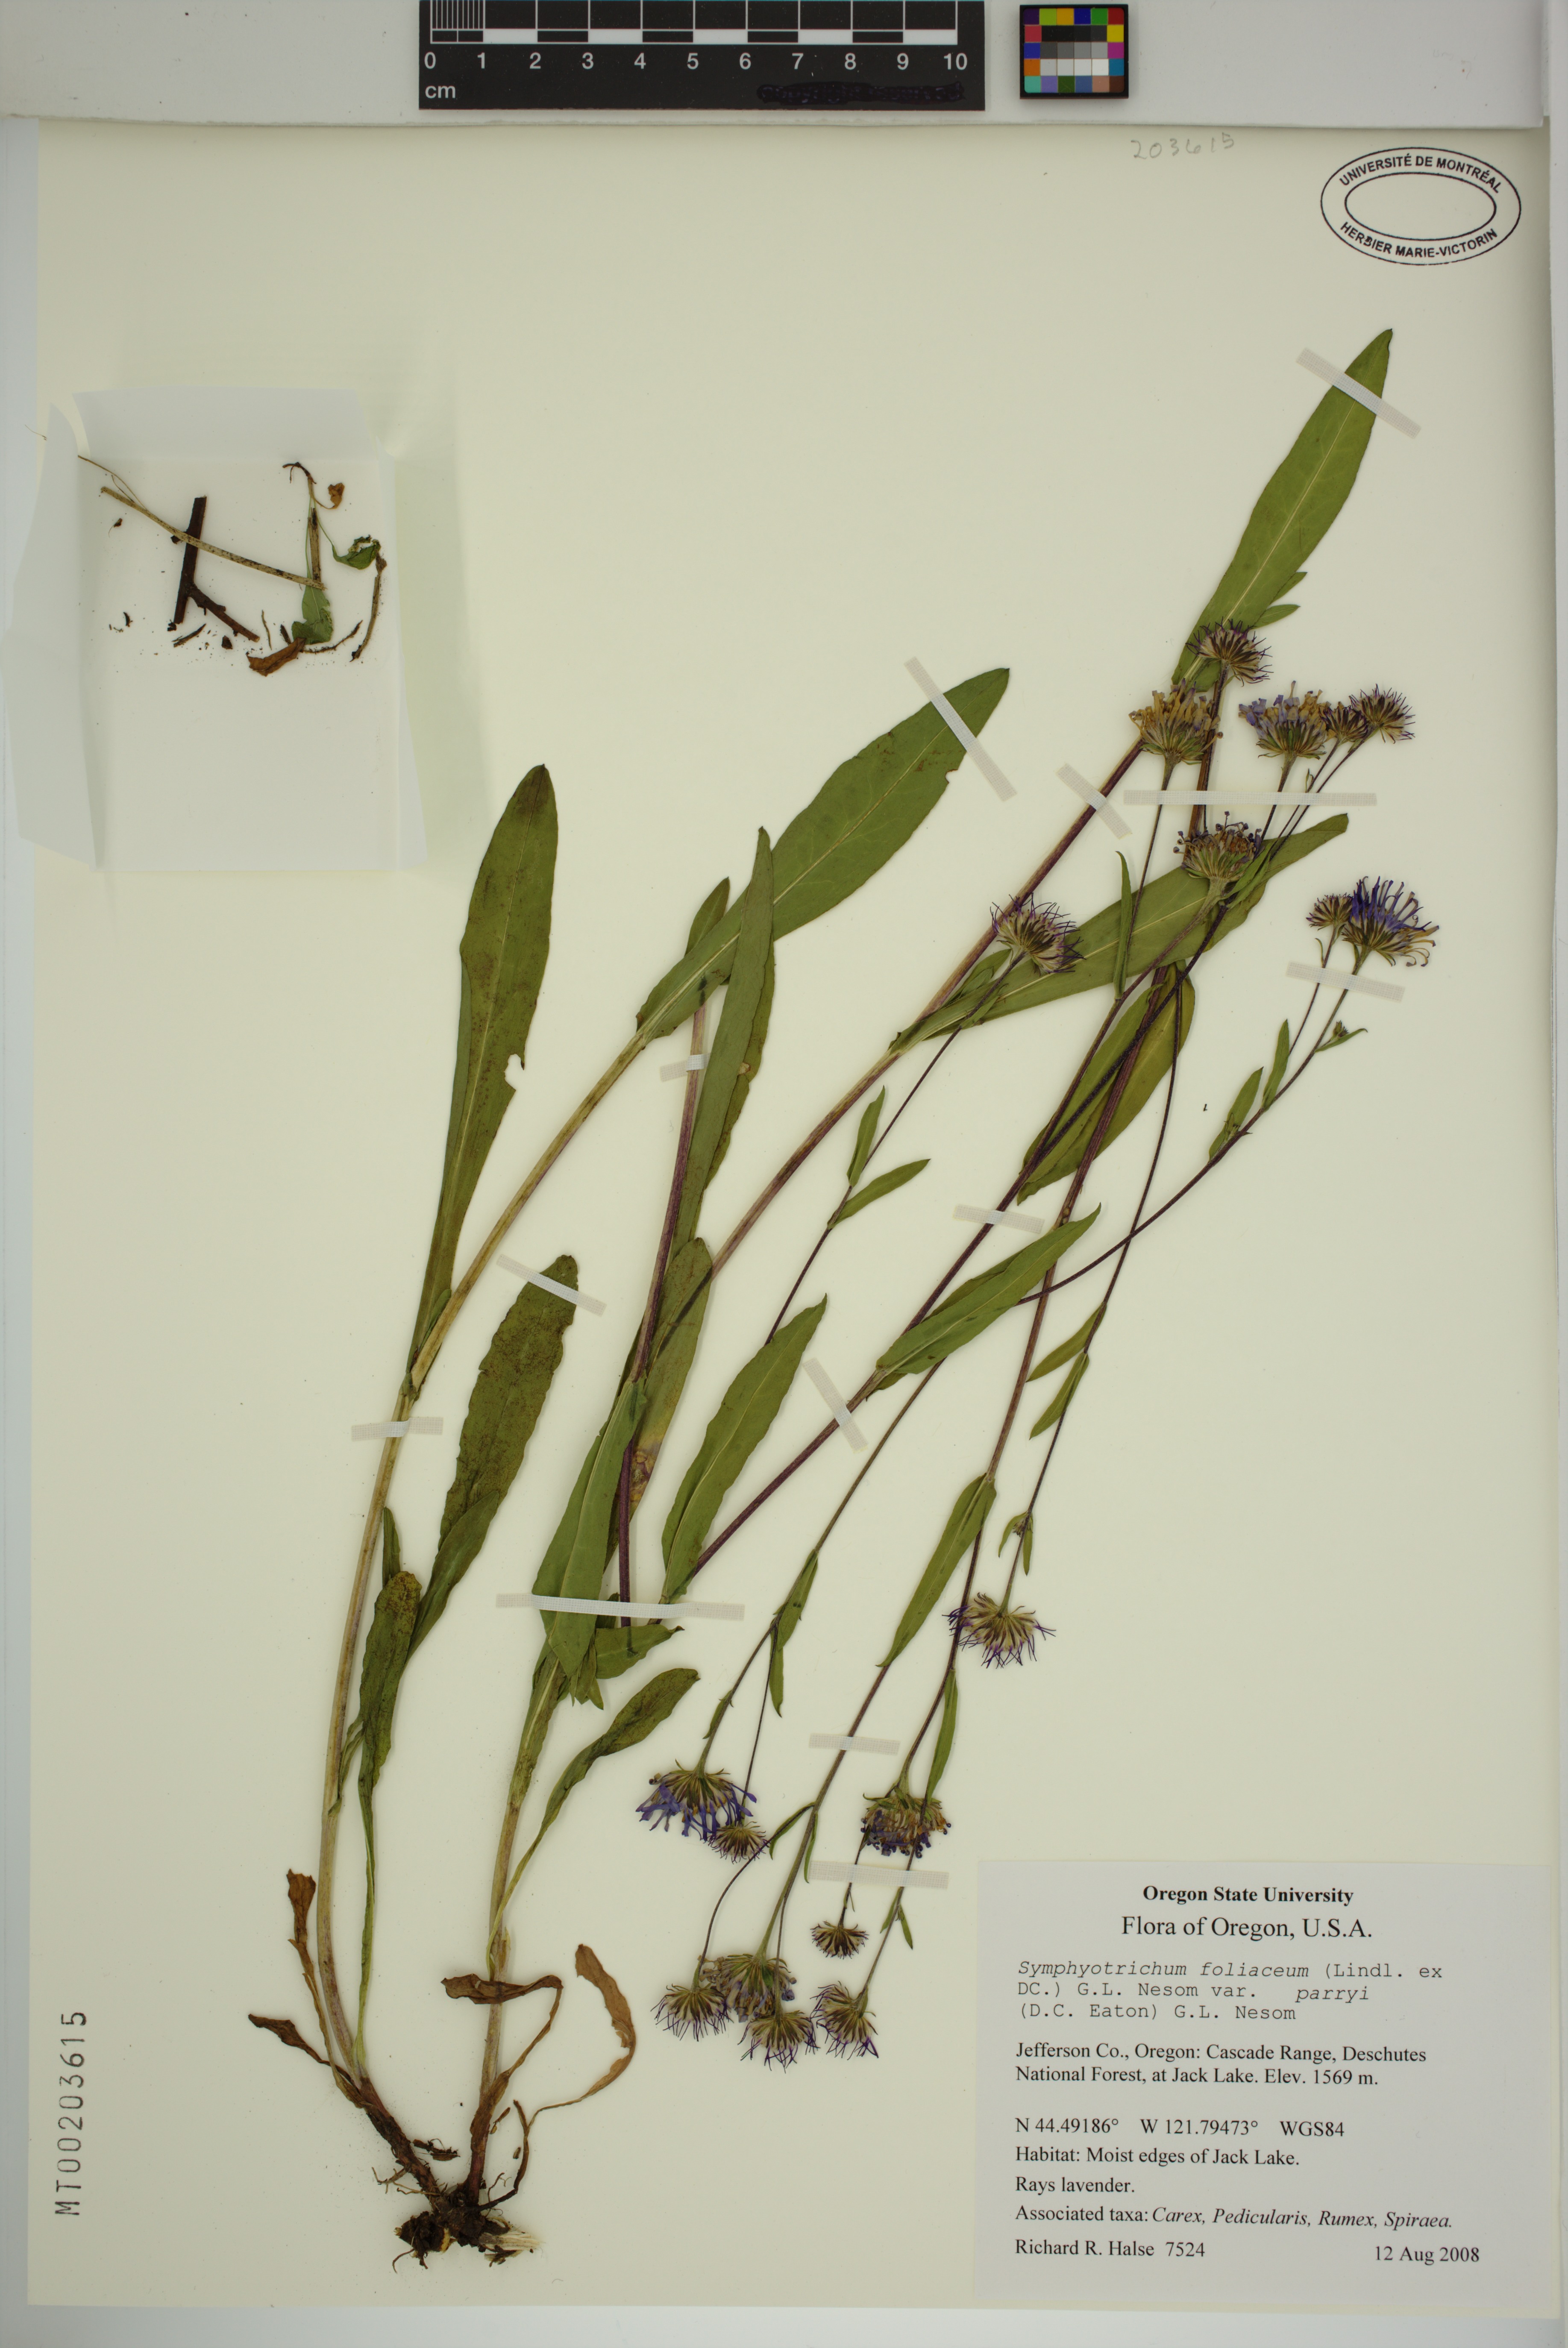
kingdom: Plantae
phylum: Tracheophyta
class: Magnoliopsida
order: Asterales
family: Asteraceae
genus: Symphyotrichum
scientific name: Symphyotrichum foliaceum
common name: Leafy aster
